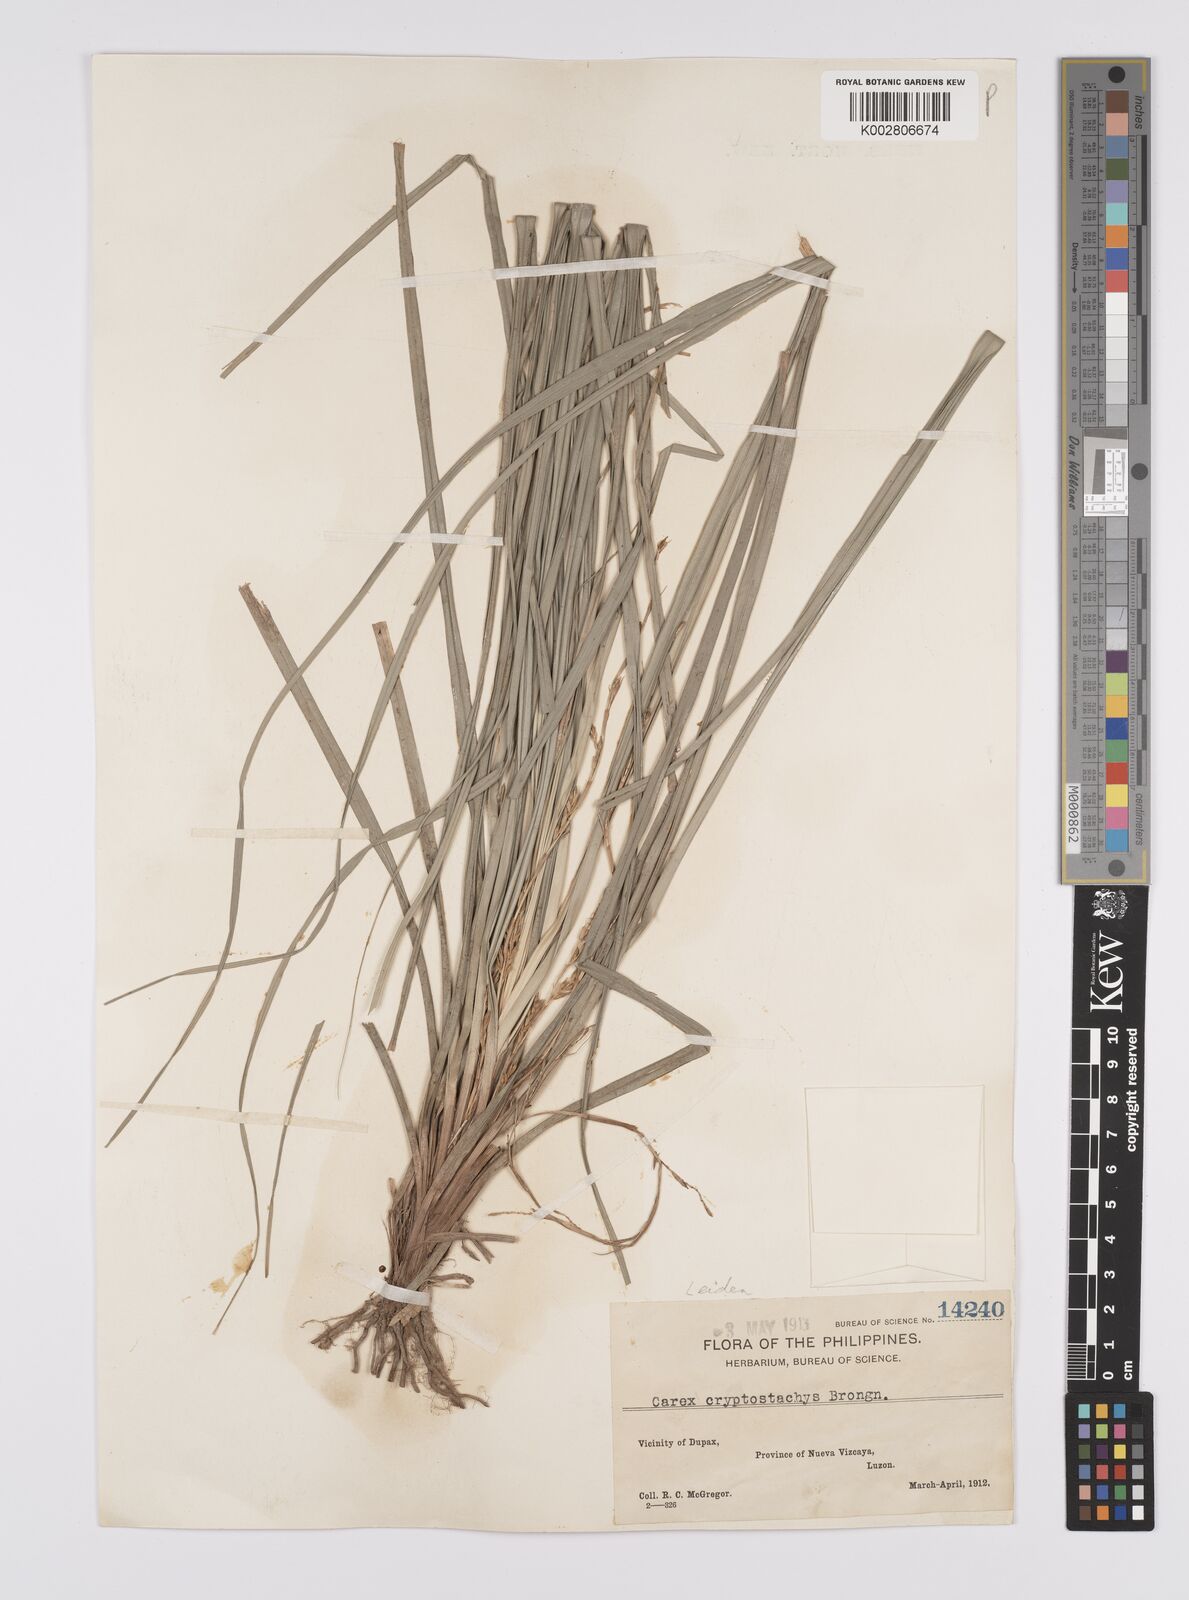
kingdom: Plantae
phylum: Tracheophyta
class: Liliopsida
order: Poales
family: Cyperaceae
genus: Carex
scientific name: Carex cryptostachys
